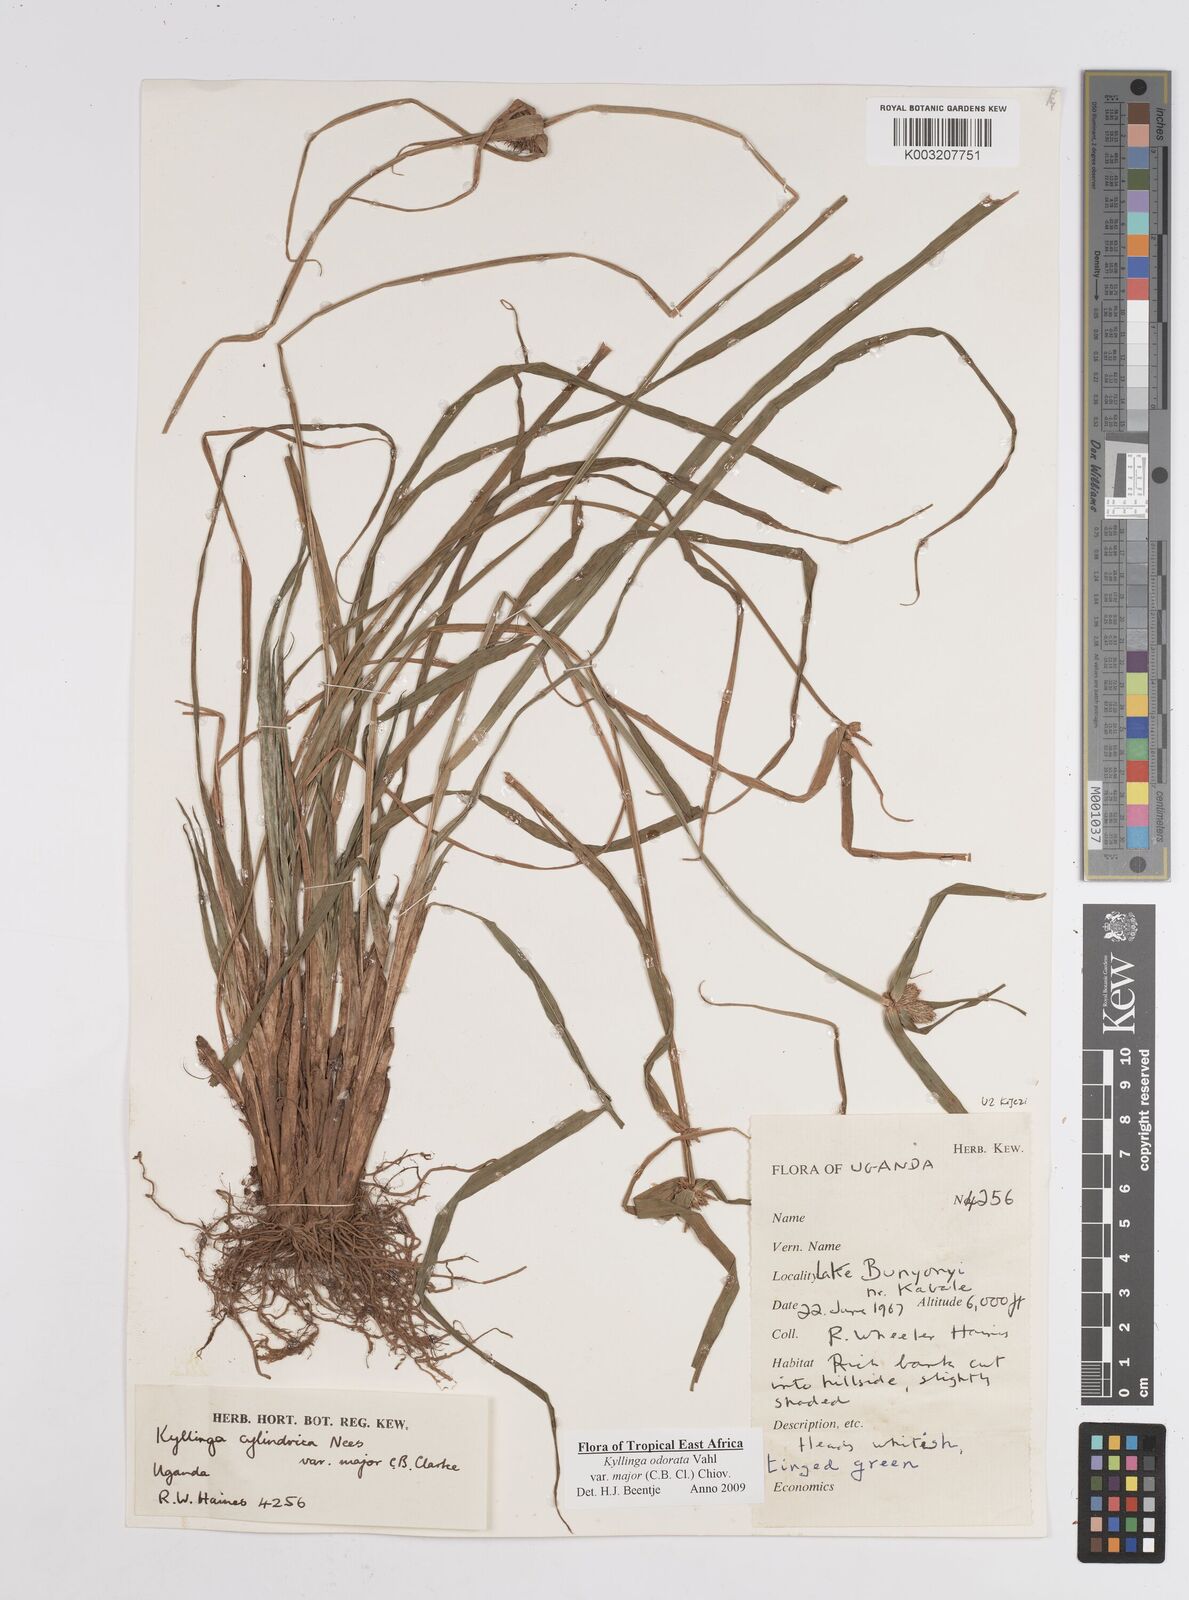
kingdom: Plantae
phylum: Tracheophyta
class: Liliopsida
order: Poales
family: Cyperaceae
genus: Cyperus
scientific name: Cyperus
